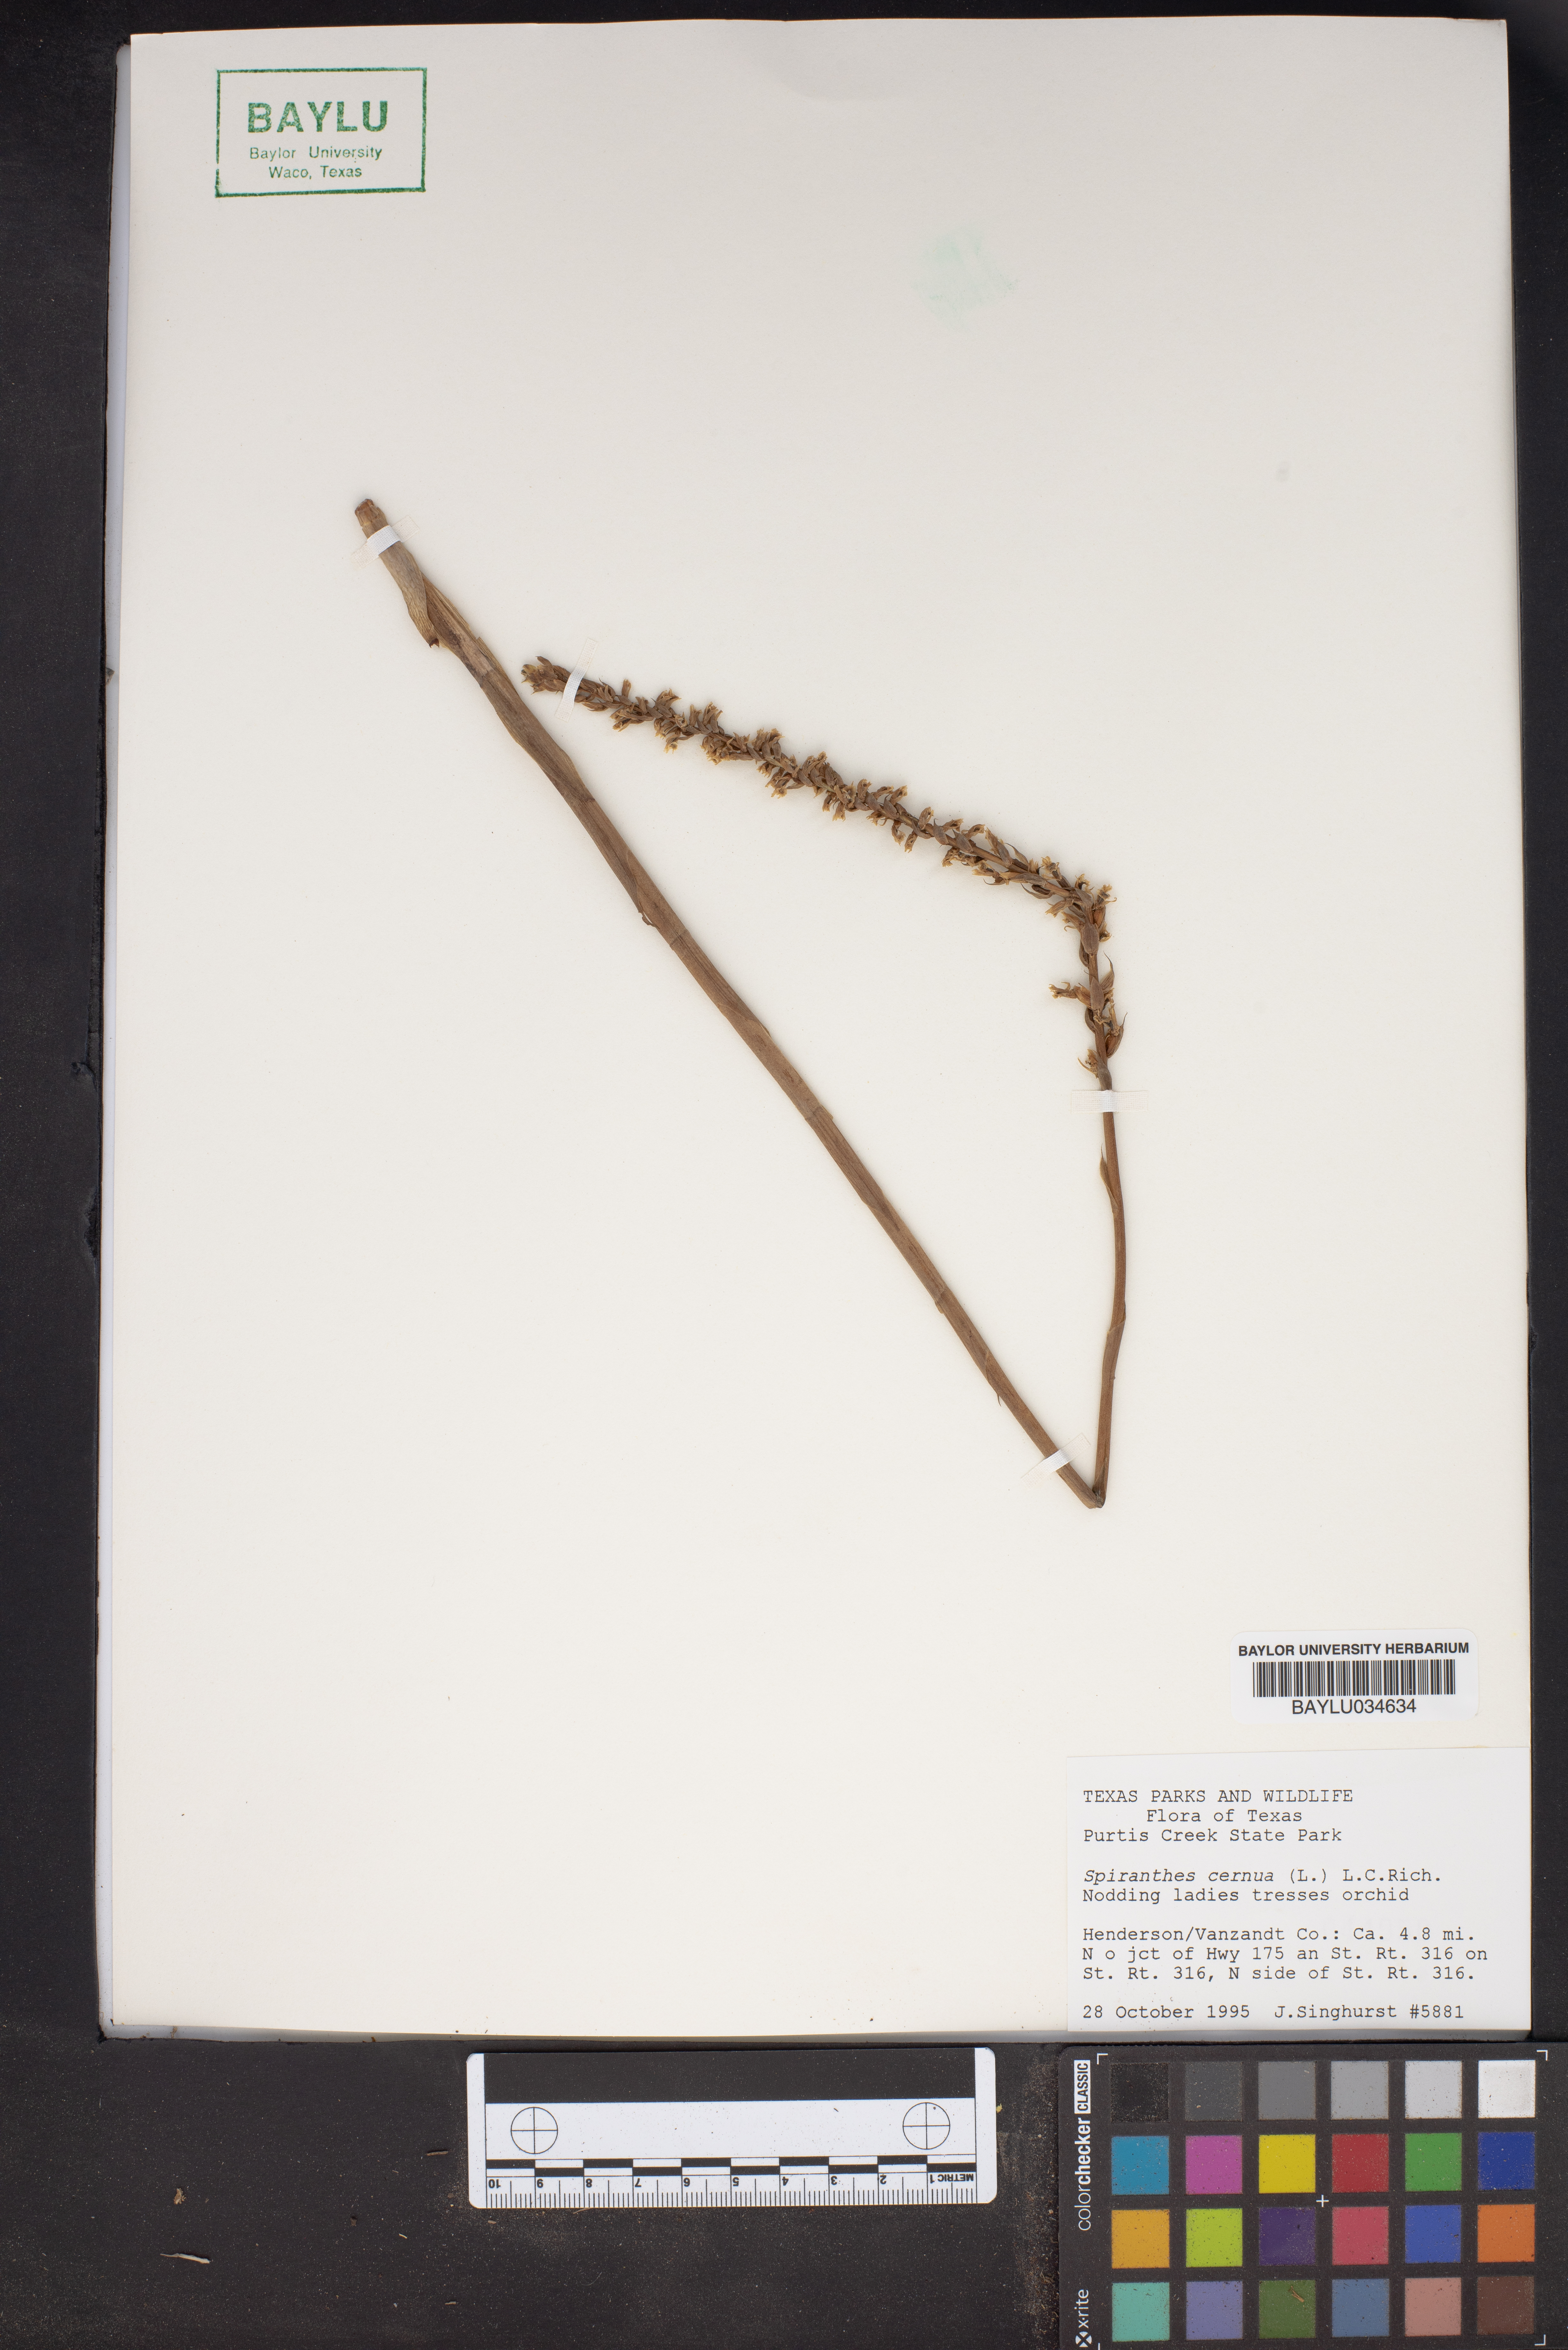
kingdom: Plantae
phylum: Tracheophyta
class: Liliopsida
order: Asparagales
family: Orchidaceae
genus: Spiranthes
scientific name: Spiranthes cernua
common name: Dropping ladies'-tresses
